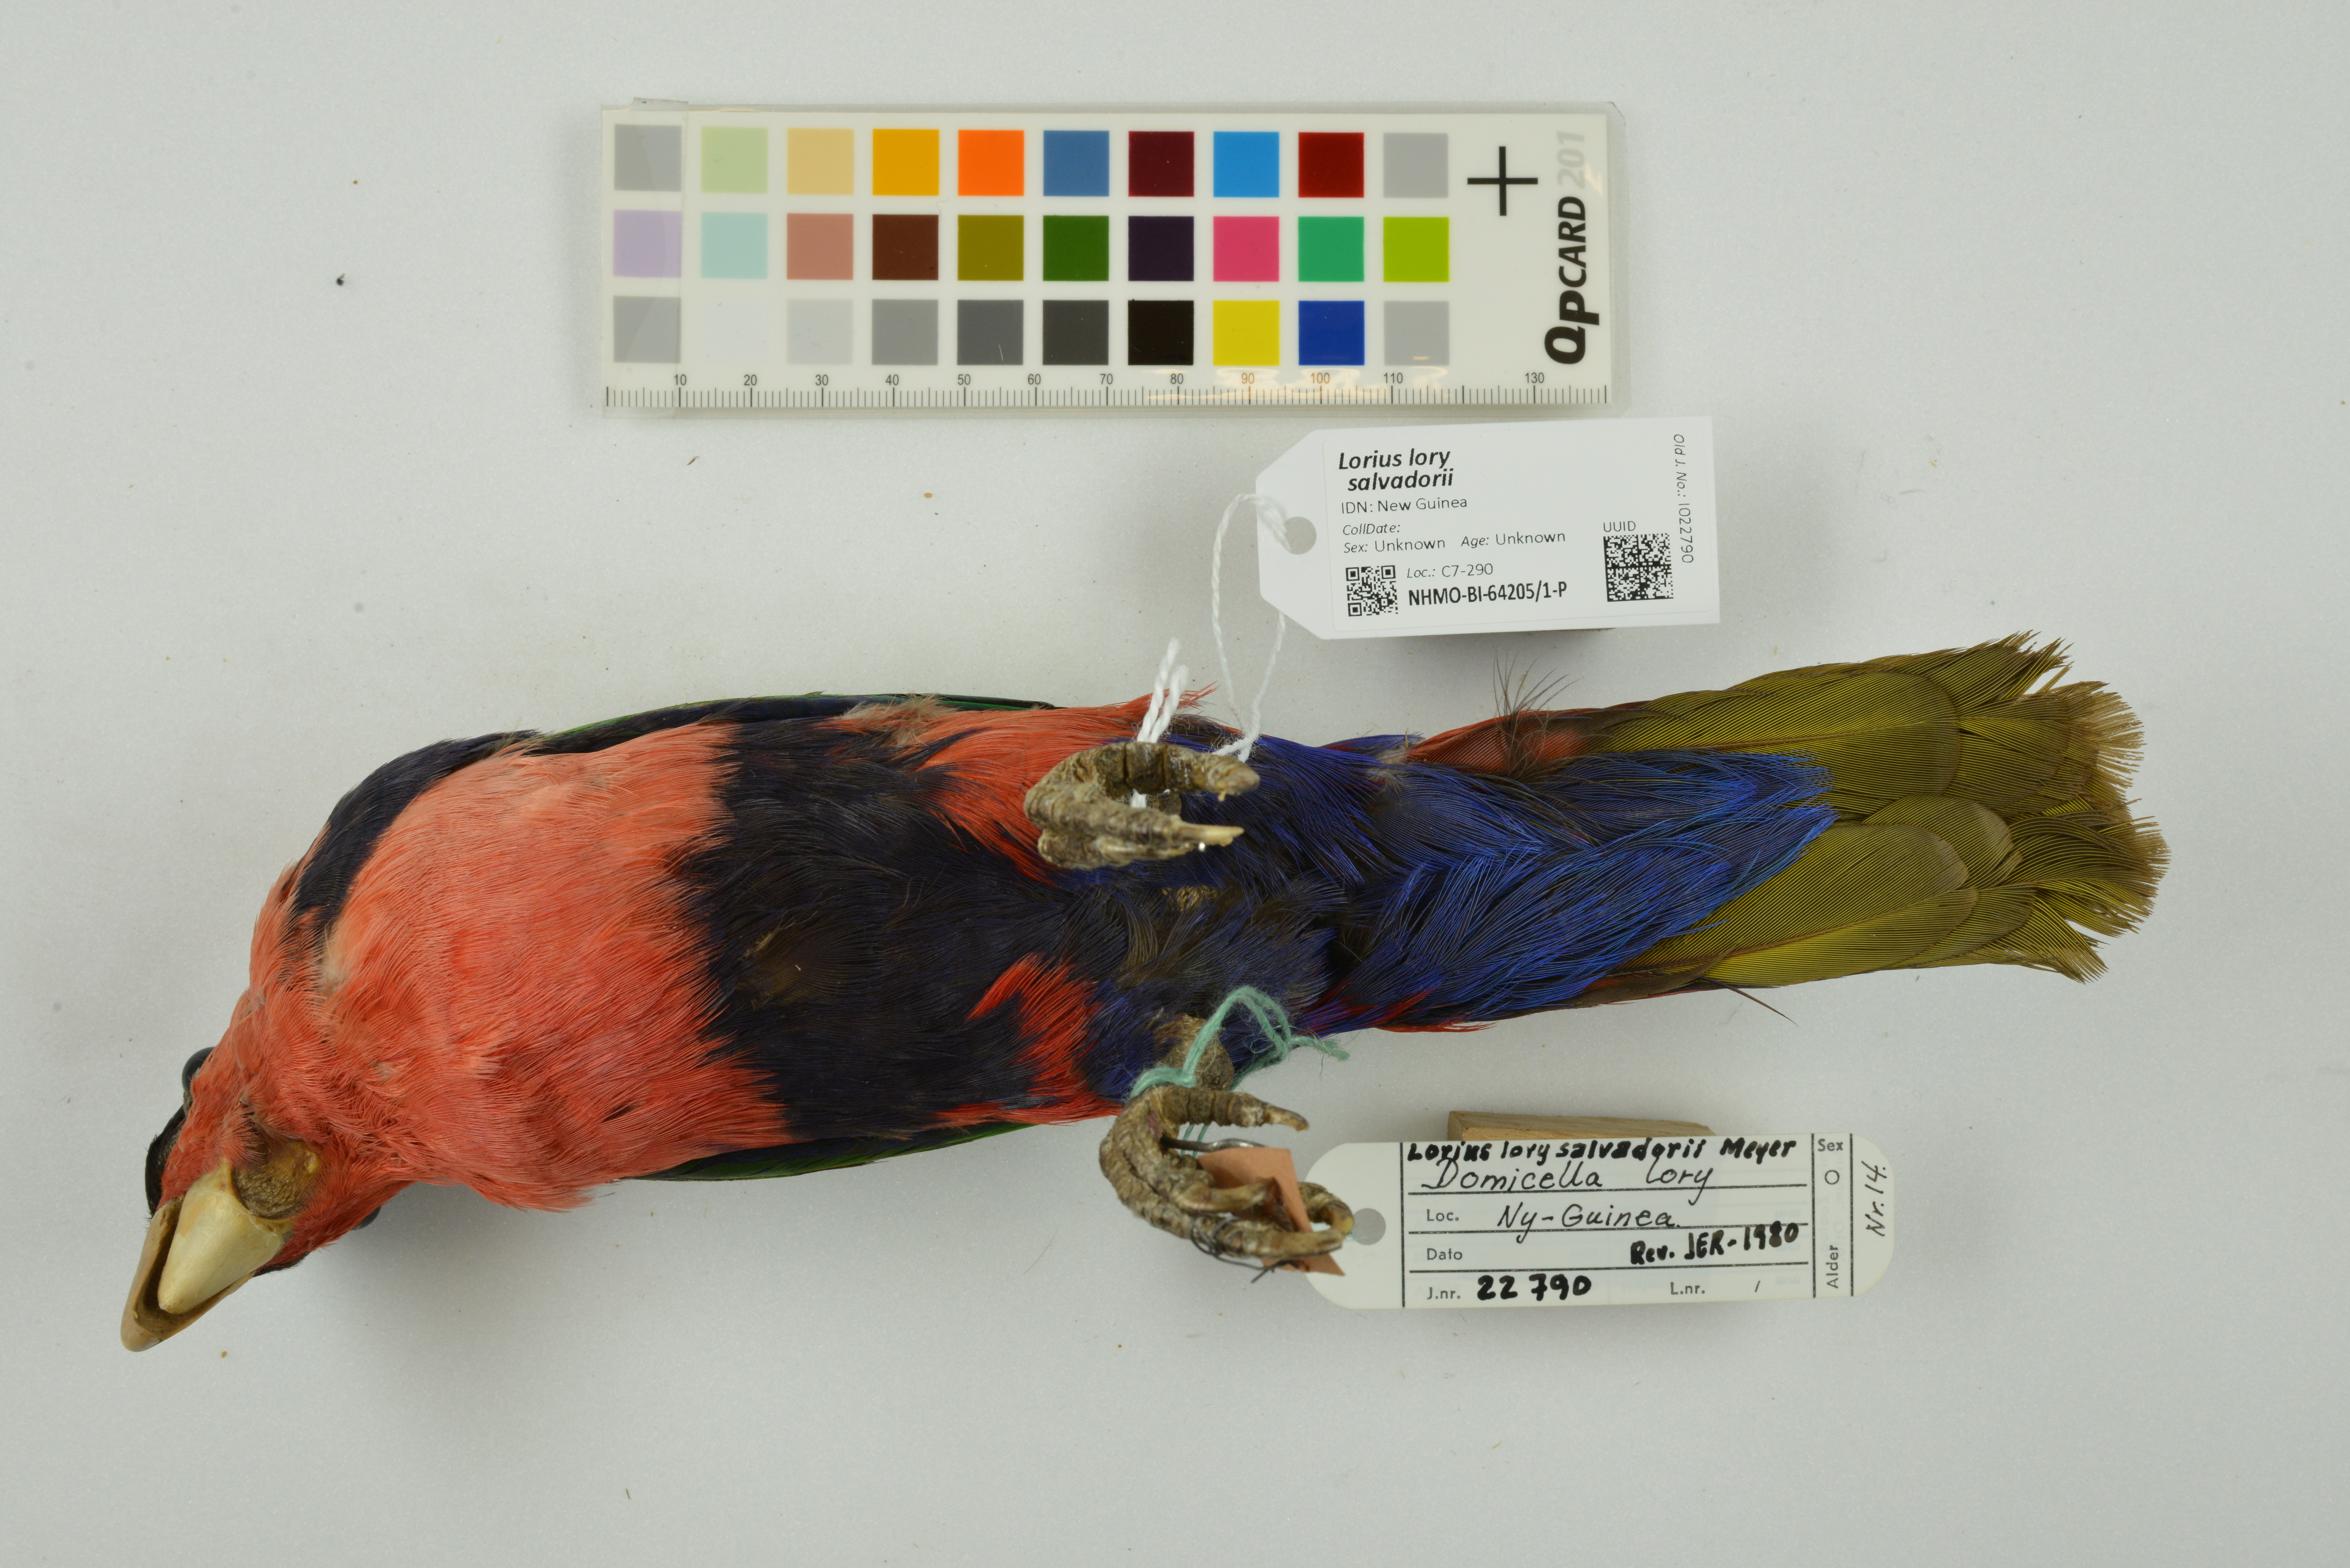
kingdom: Animalia
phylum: Chordata
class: Aves
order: Psittaciformes
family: Psittacidae
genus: Lorius
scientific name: Lorius lory
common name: Black-capped lory
